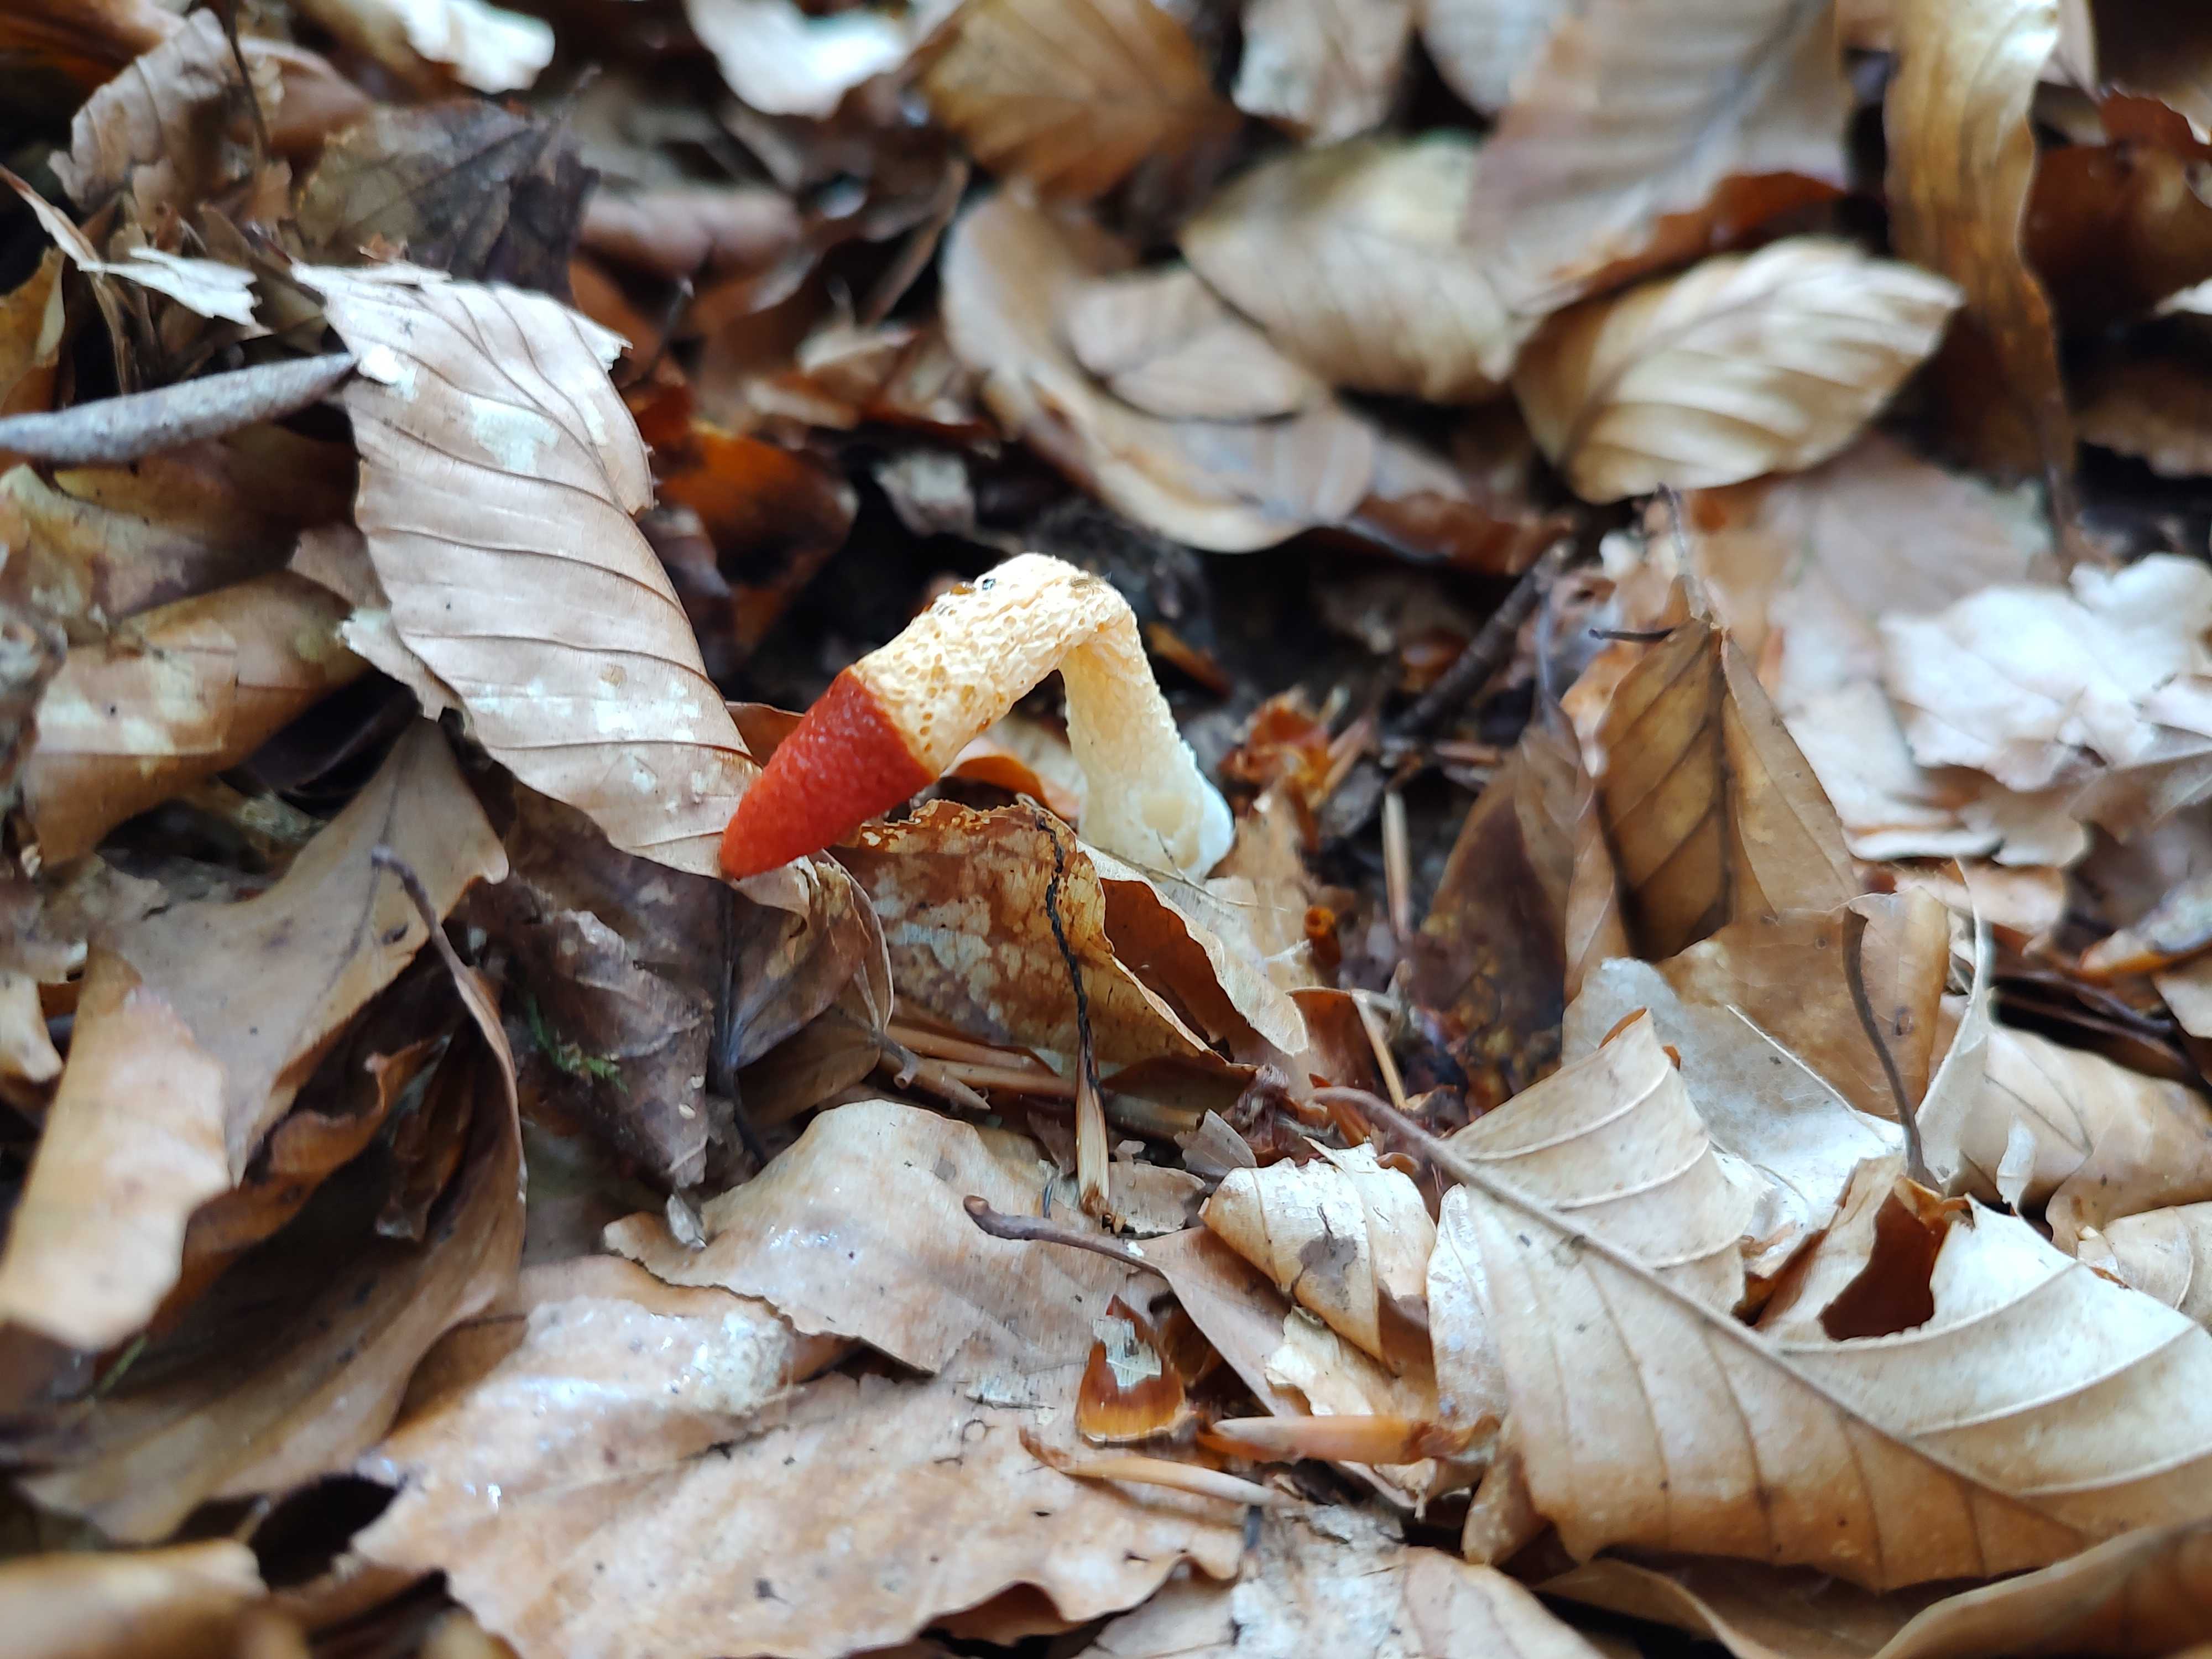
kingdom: Fungi
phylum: Basidiomycota
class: Agaricomycetes
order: Phallales
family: Phallaceae
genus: Mutinus
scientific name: Mutinus caninus
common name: hunde-stinksvamp
